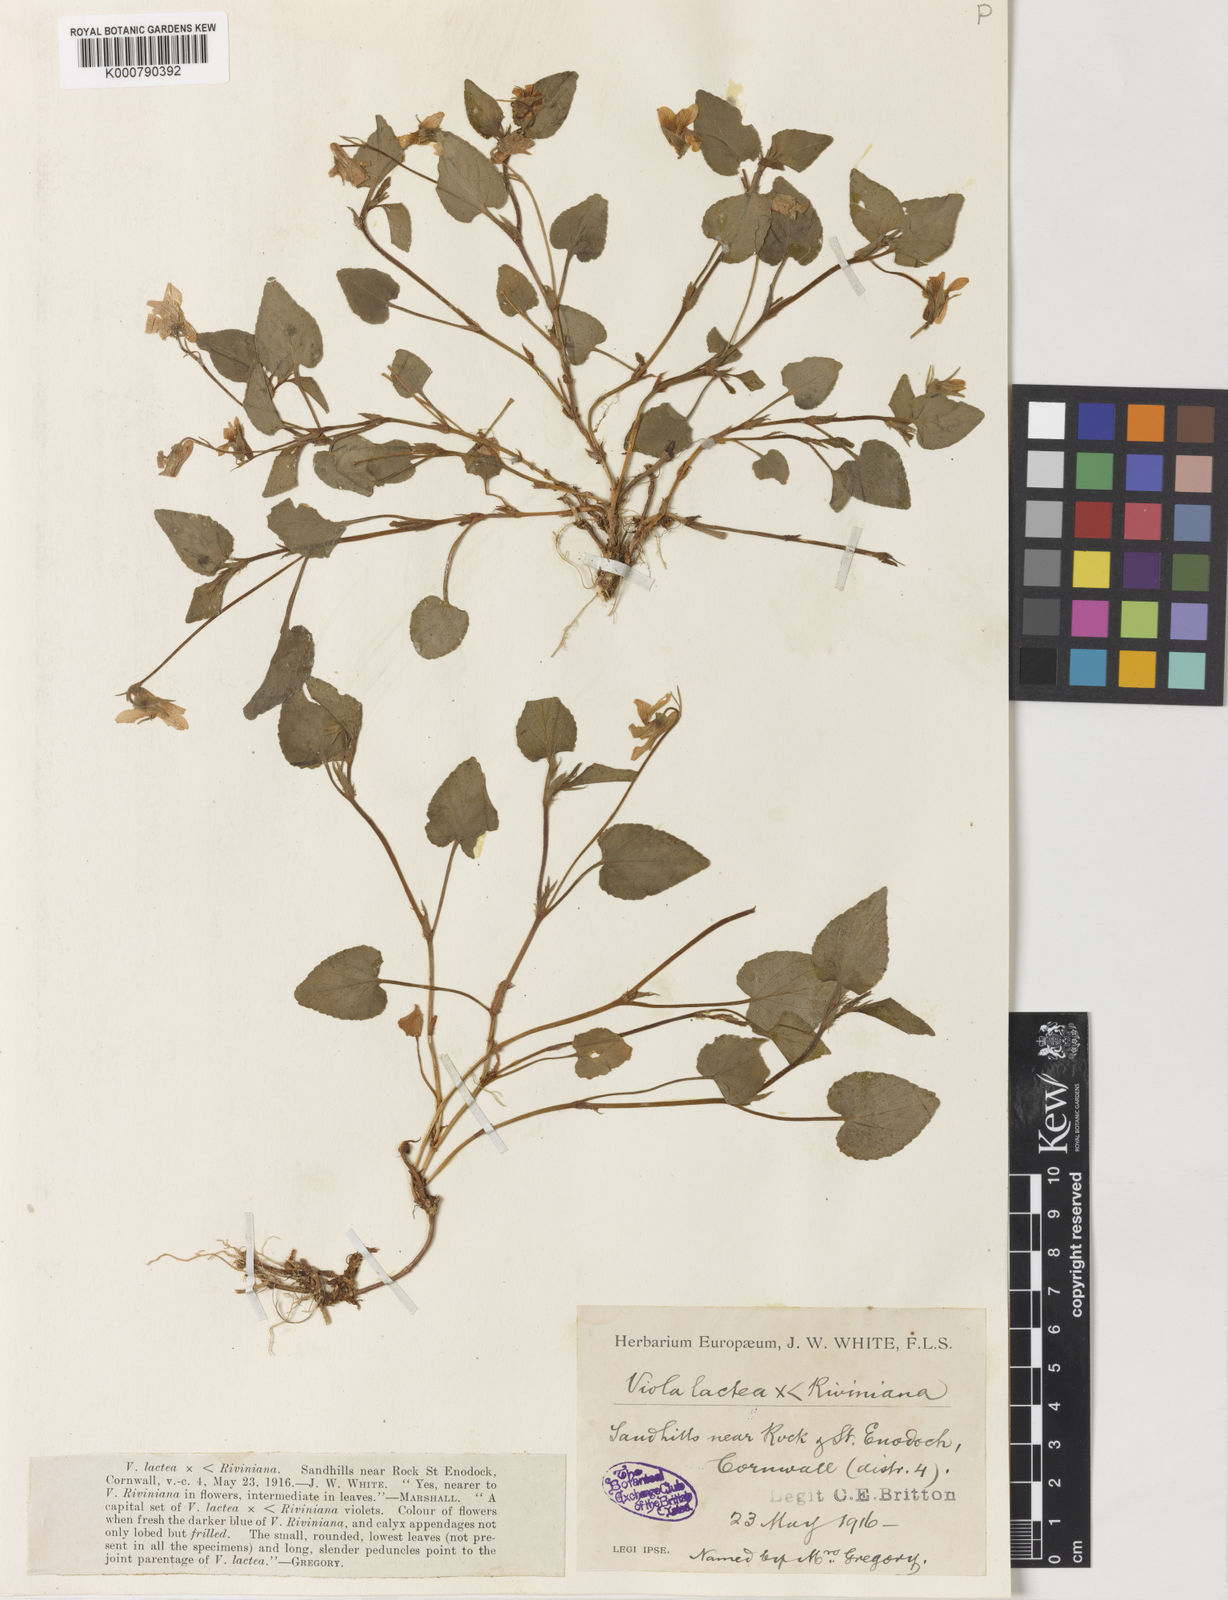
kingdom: Plantae
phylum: Tracheophyta
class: Magnoliopsida
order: Malpighiales
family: Violaceae
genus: Viola
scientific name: Viola lactea
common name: Pale dog-violet
